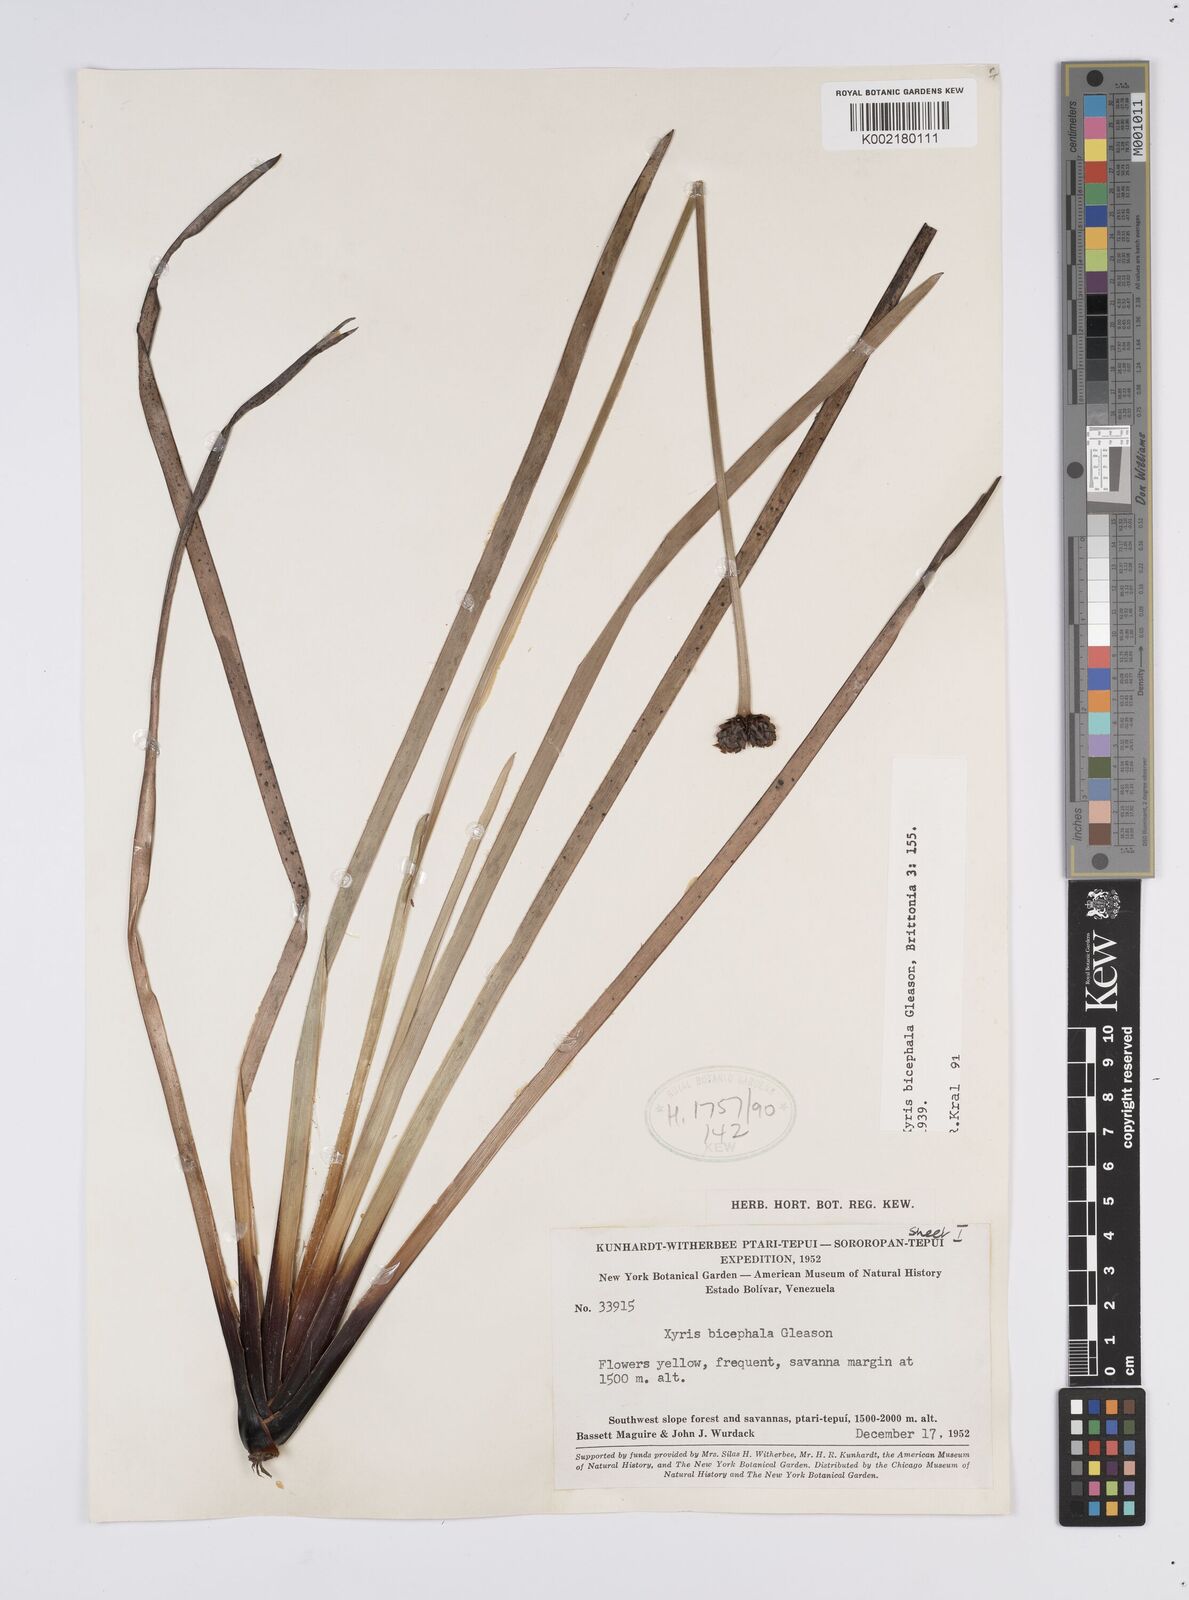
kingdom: Plantae
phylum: Tracheophyta
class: Liliopsida
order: Poales
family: Xyridaceae
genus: Xyris
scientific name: Xyris bicephala
